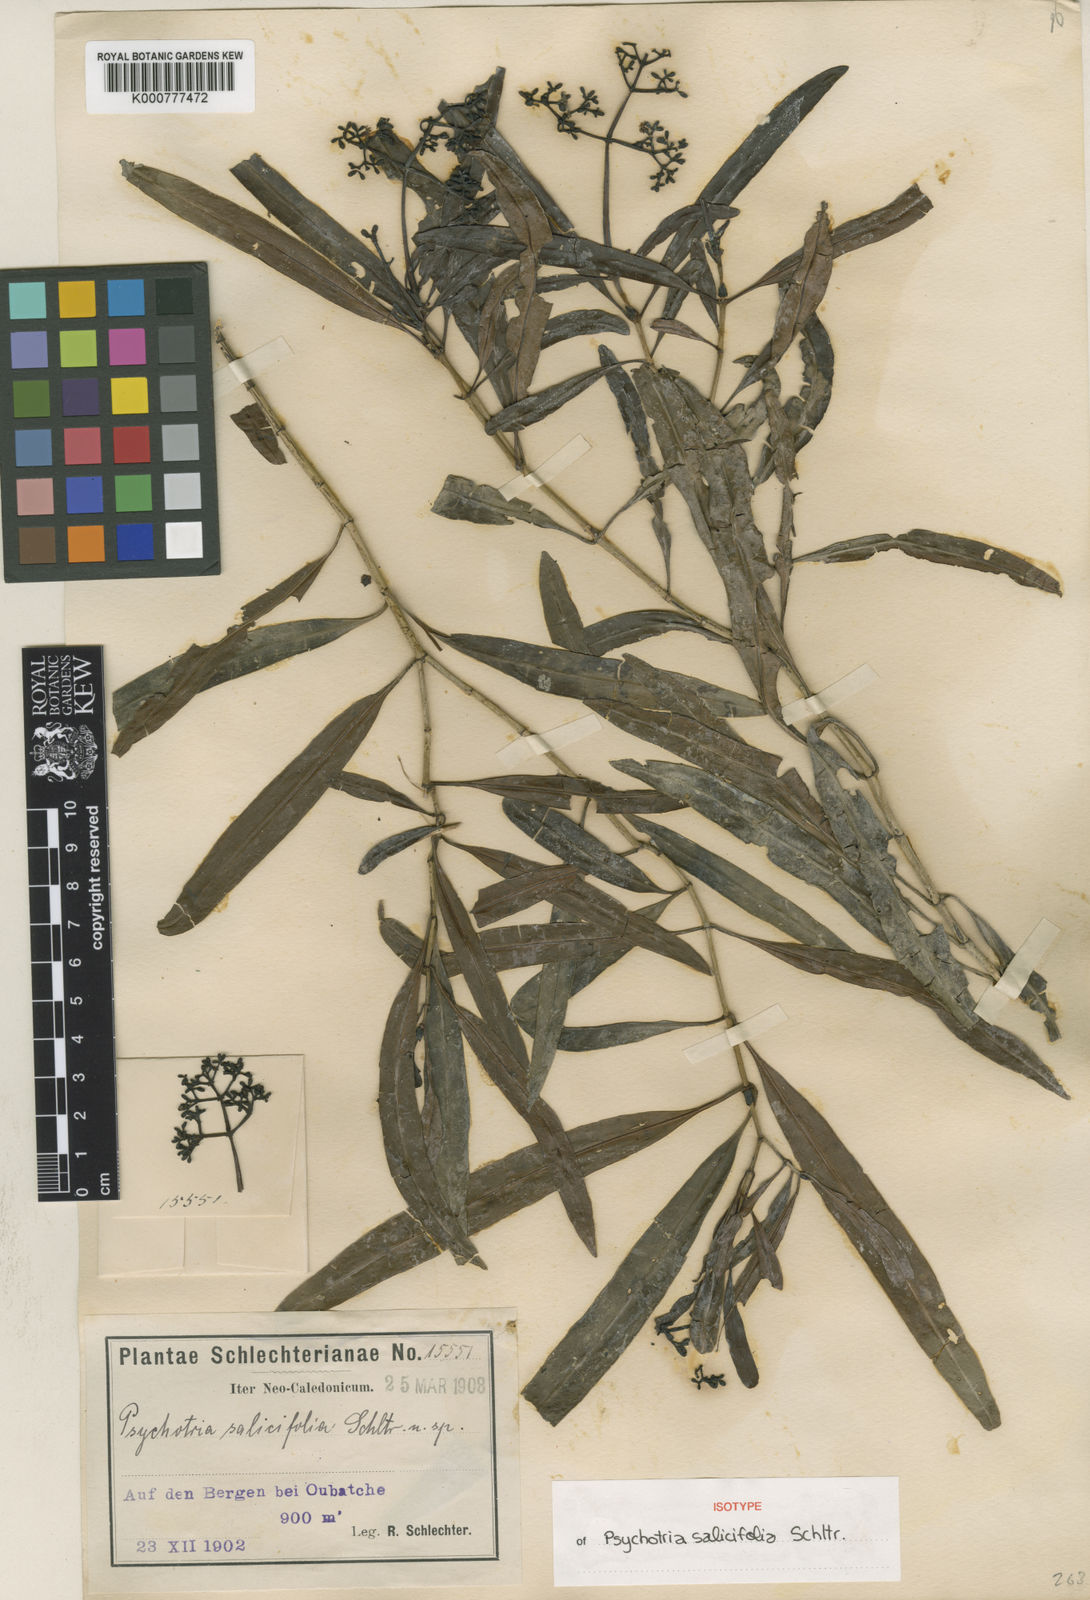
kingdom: Plantae
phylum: Tracheophyta
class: Magnoliopsida
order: Gentianales
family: Rubiaceae
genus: Palicourea
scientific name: Palicourea attenuata
